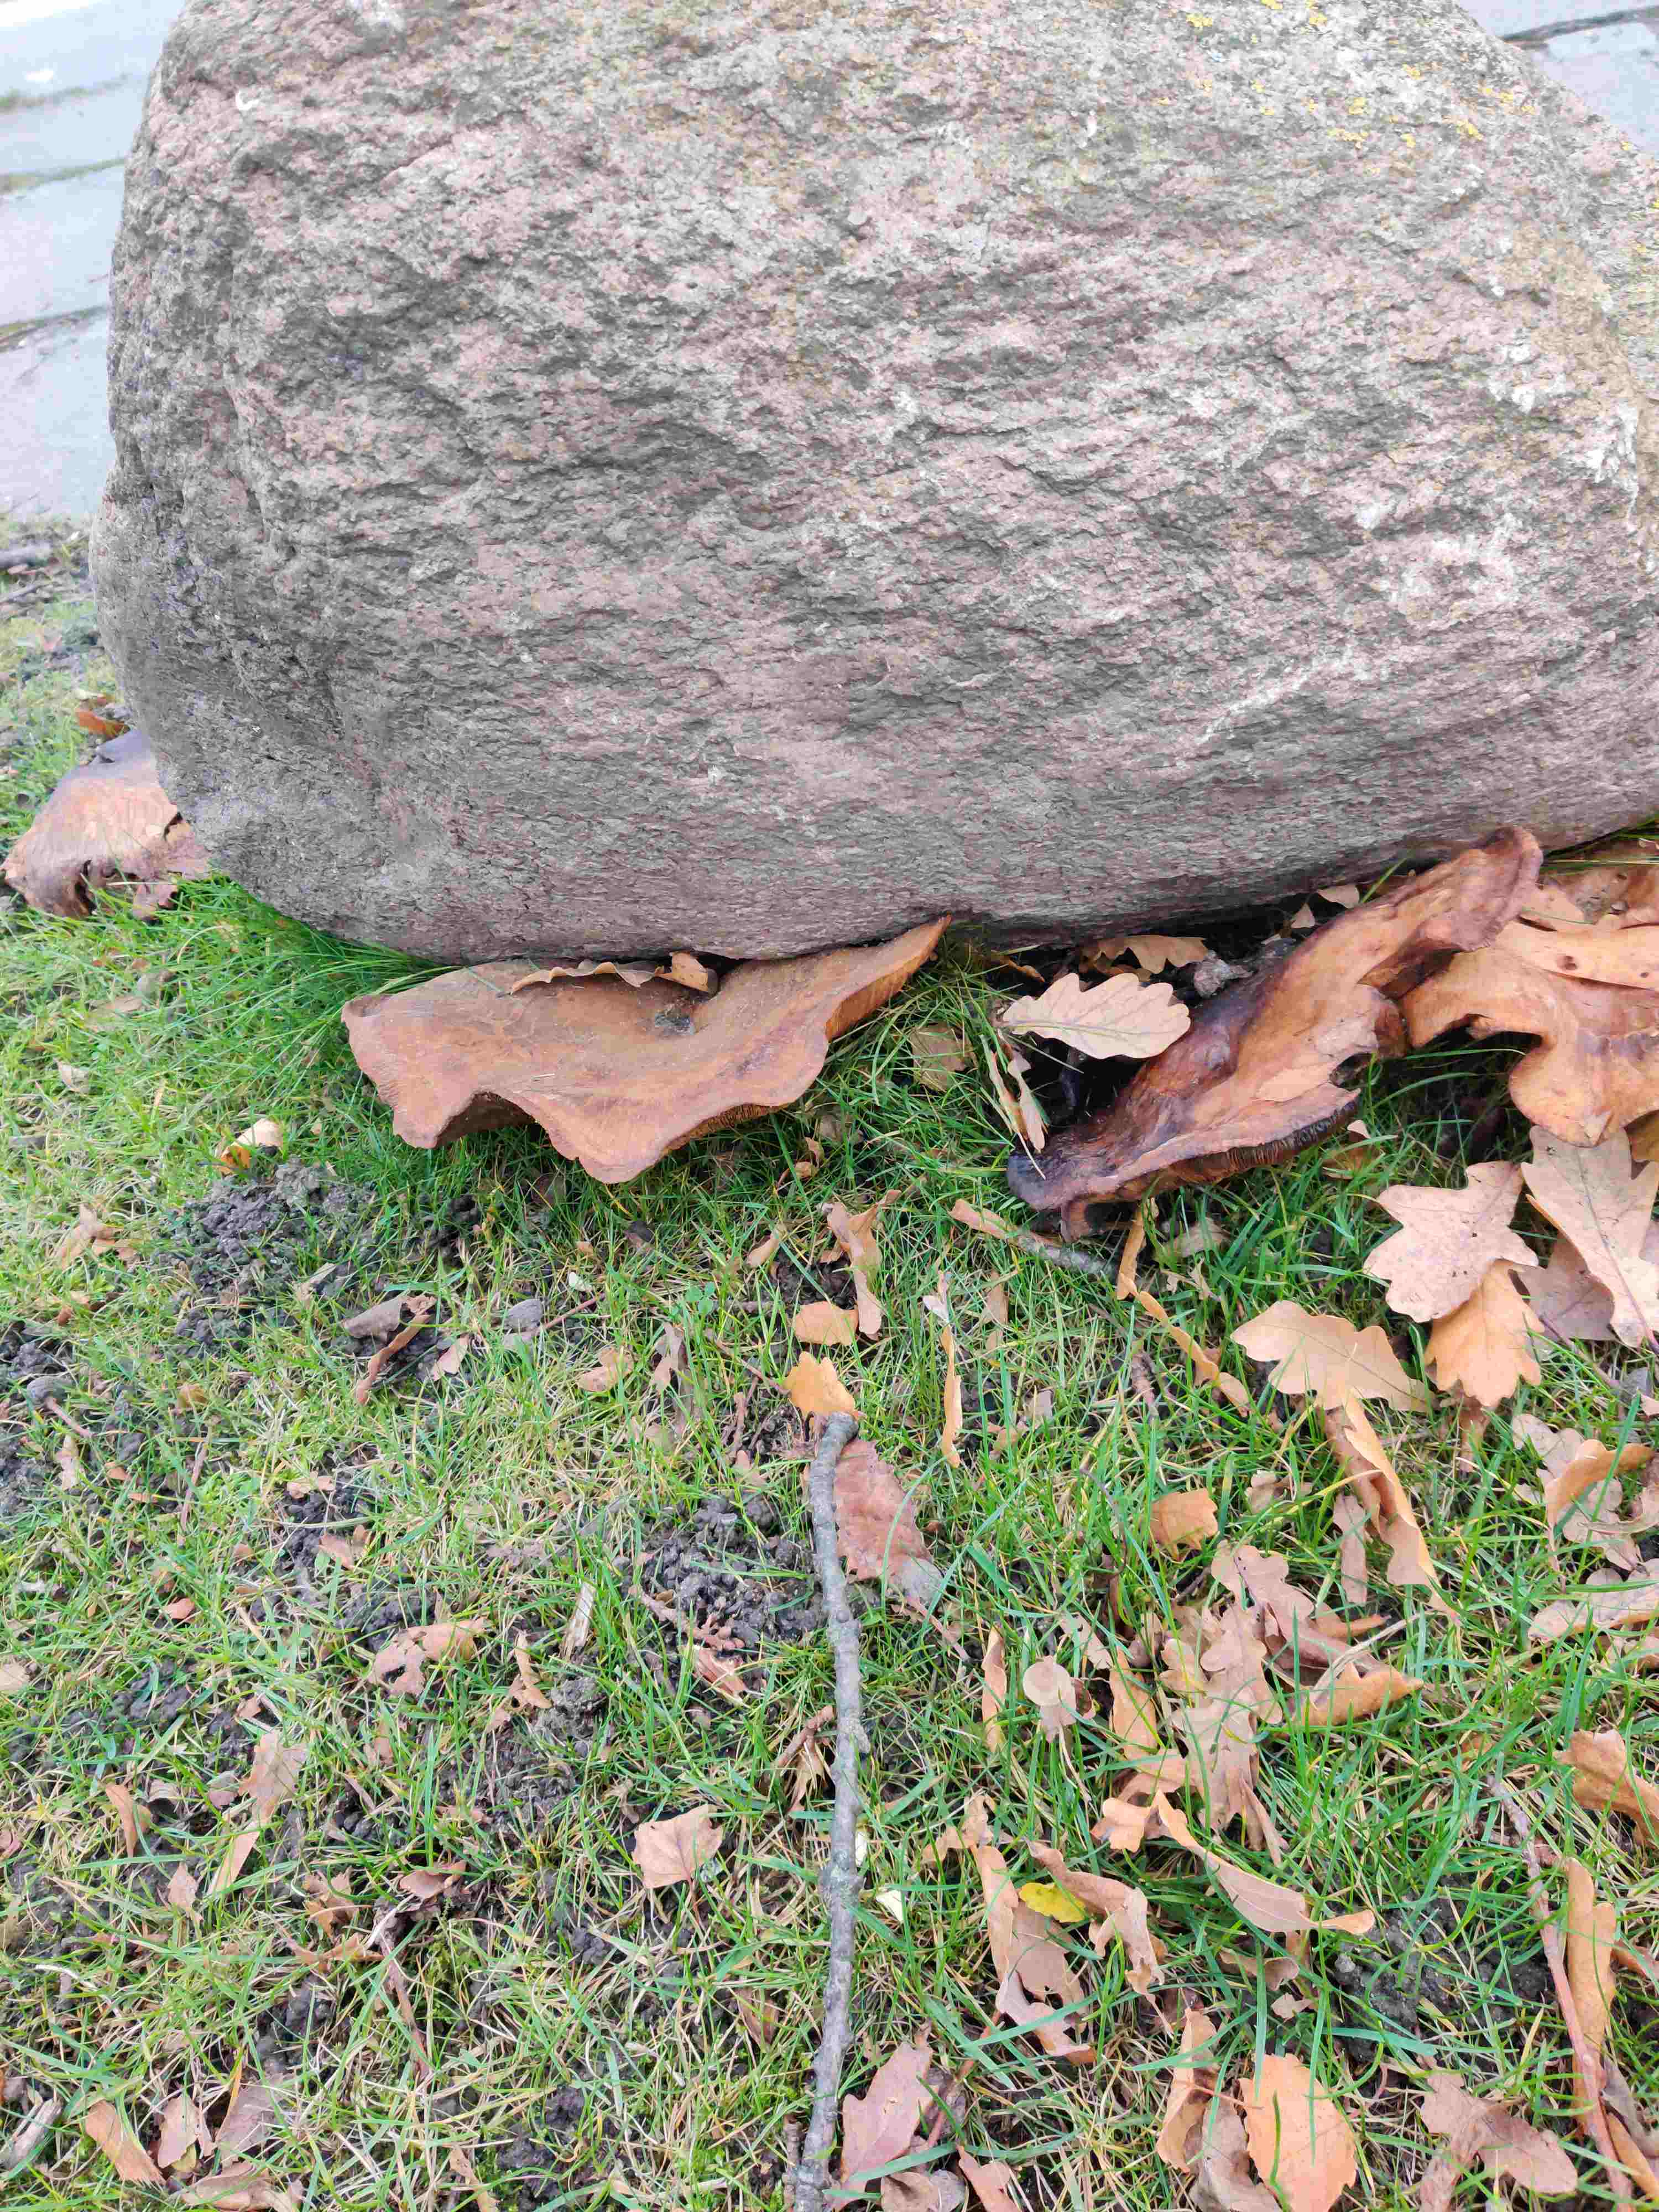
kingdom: Fungi
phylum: Basidiomycota
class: Agaricomycetes
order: Boletales
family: Paxillaceae
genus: Paxillus
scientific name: Paxillus
